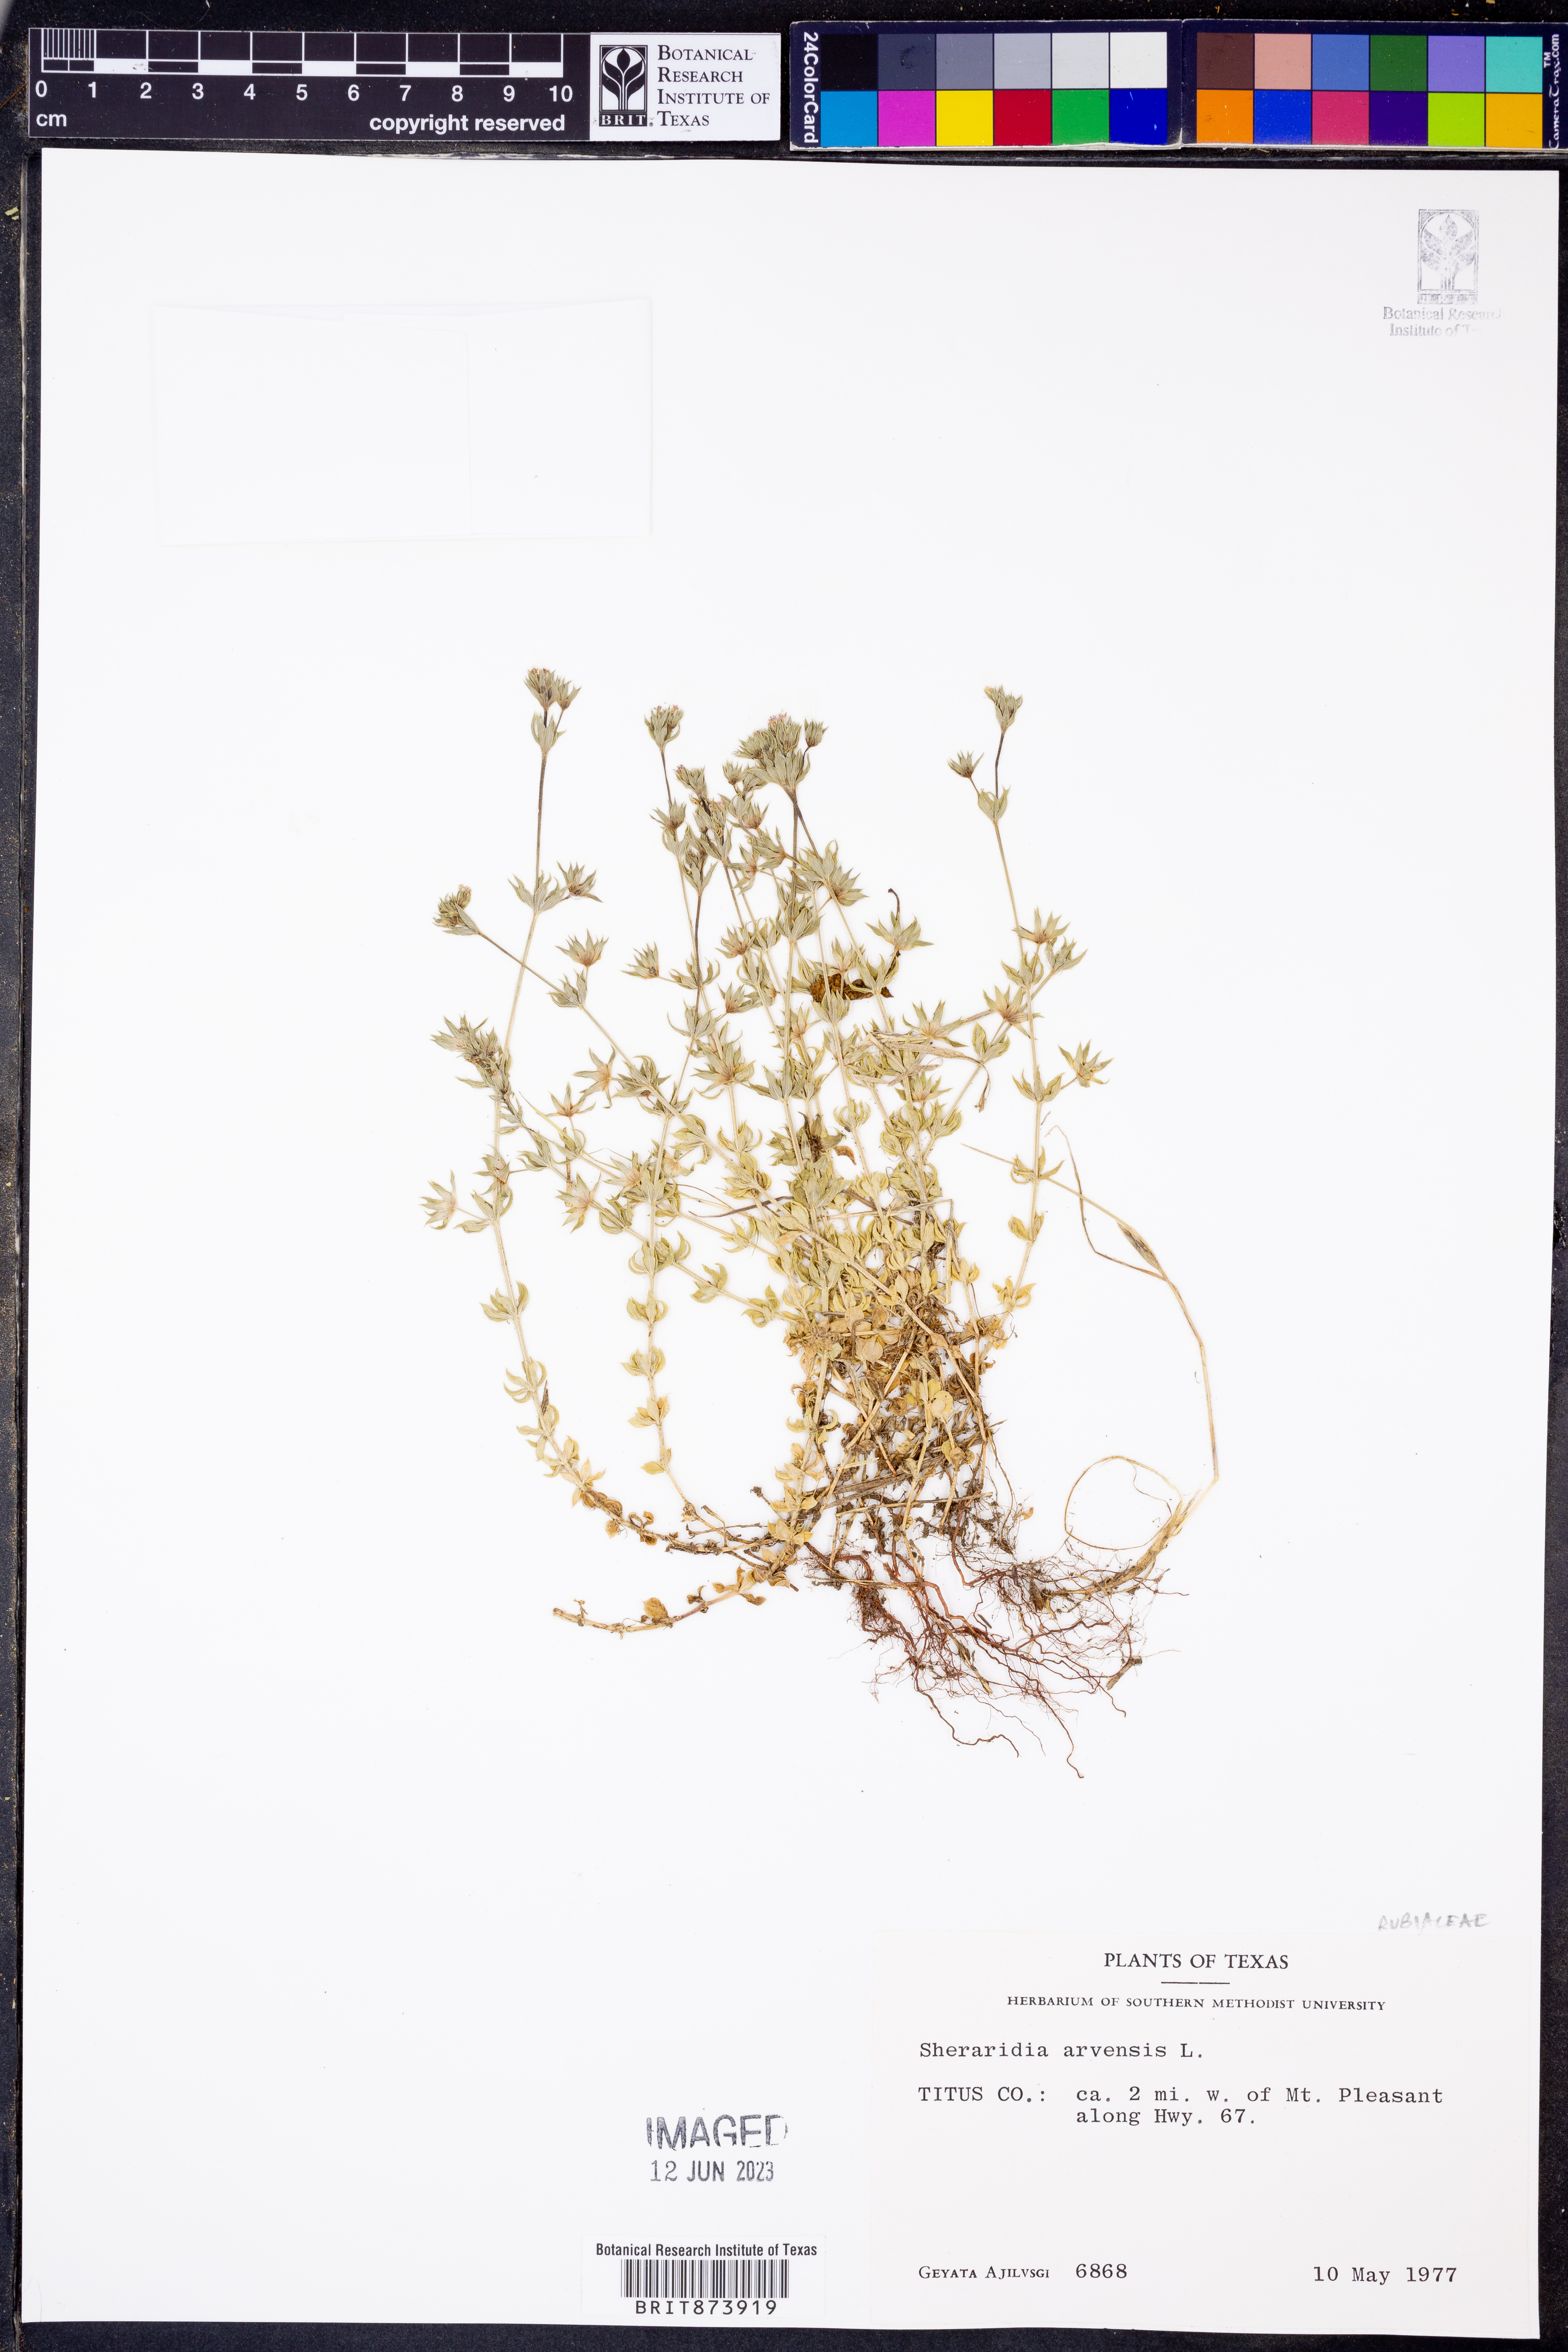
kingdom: Plantae
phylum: Tracheophyta
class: Magnoliopsida
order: Gentianales
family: Rubiaceae
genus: Sherardia
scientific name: Sherardia arvensis
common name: Field madder
